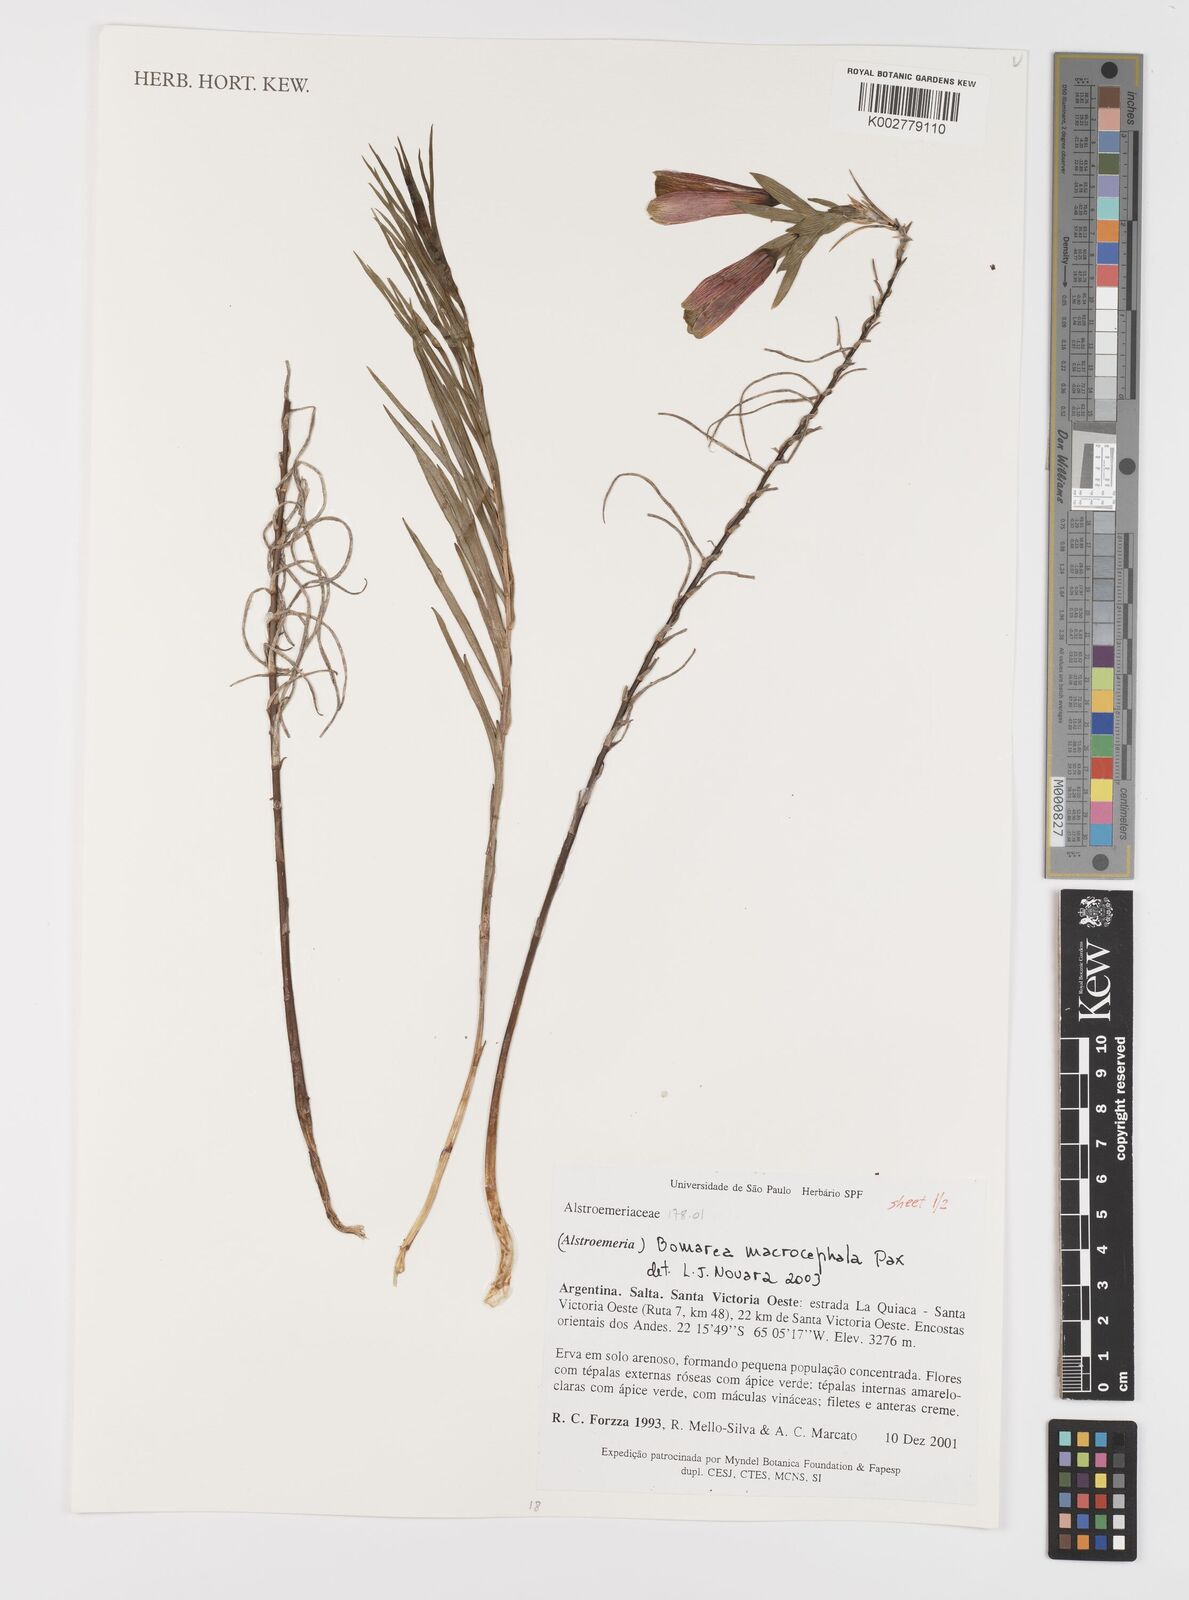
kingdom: Plantae
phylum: Tracheophyta
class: Liliopsida
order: Liliales
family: Alstroemeriaceae
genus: Bomarea
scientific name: Bomarea macrocephala
